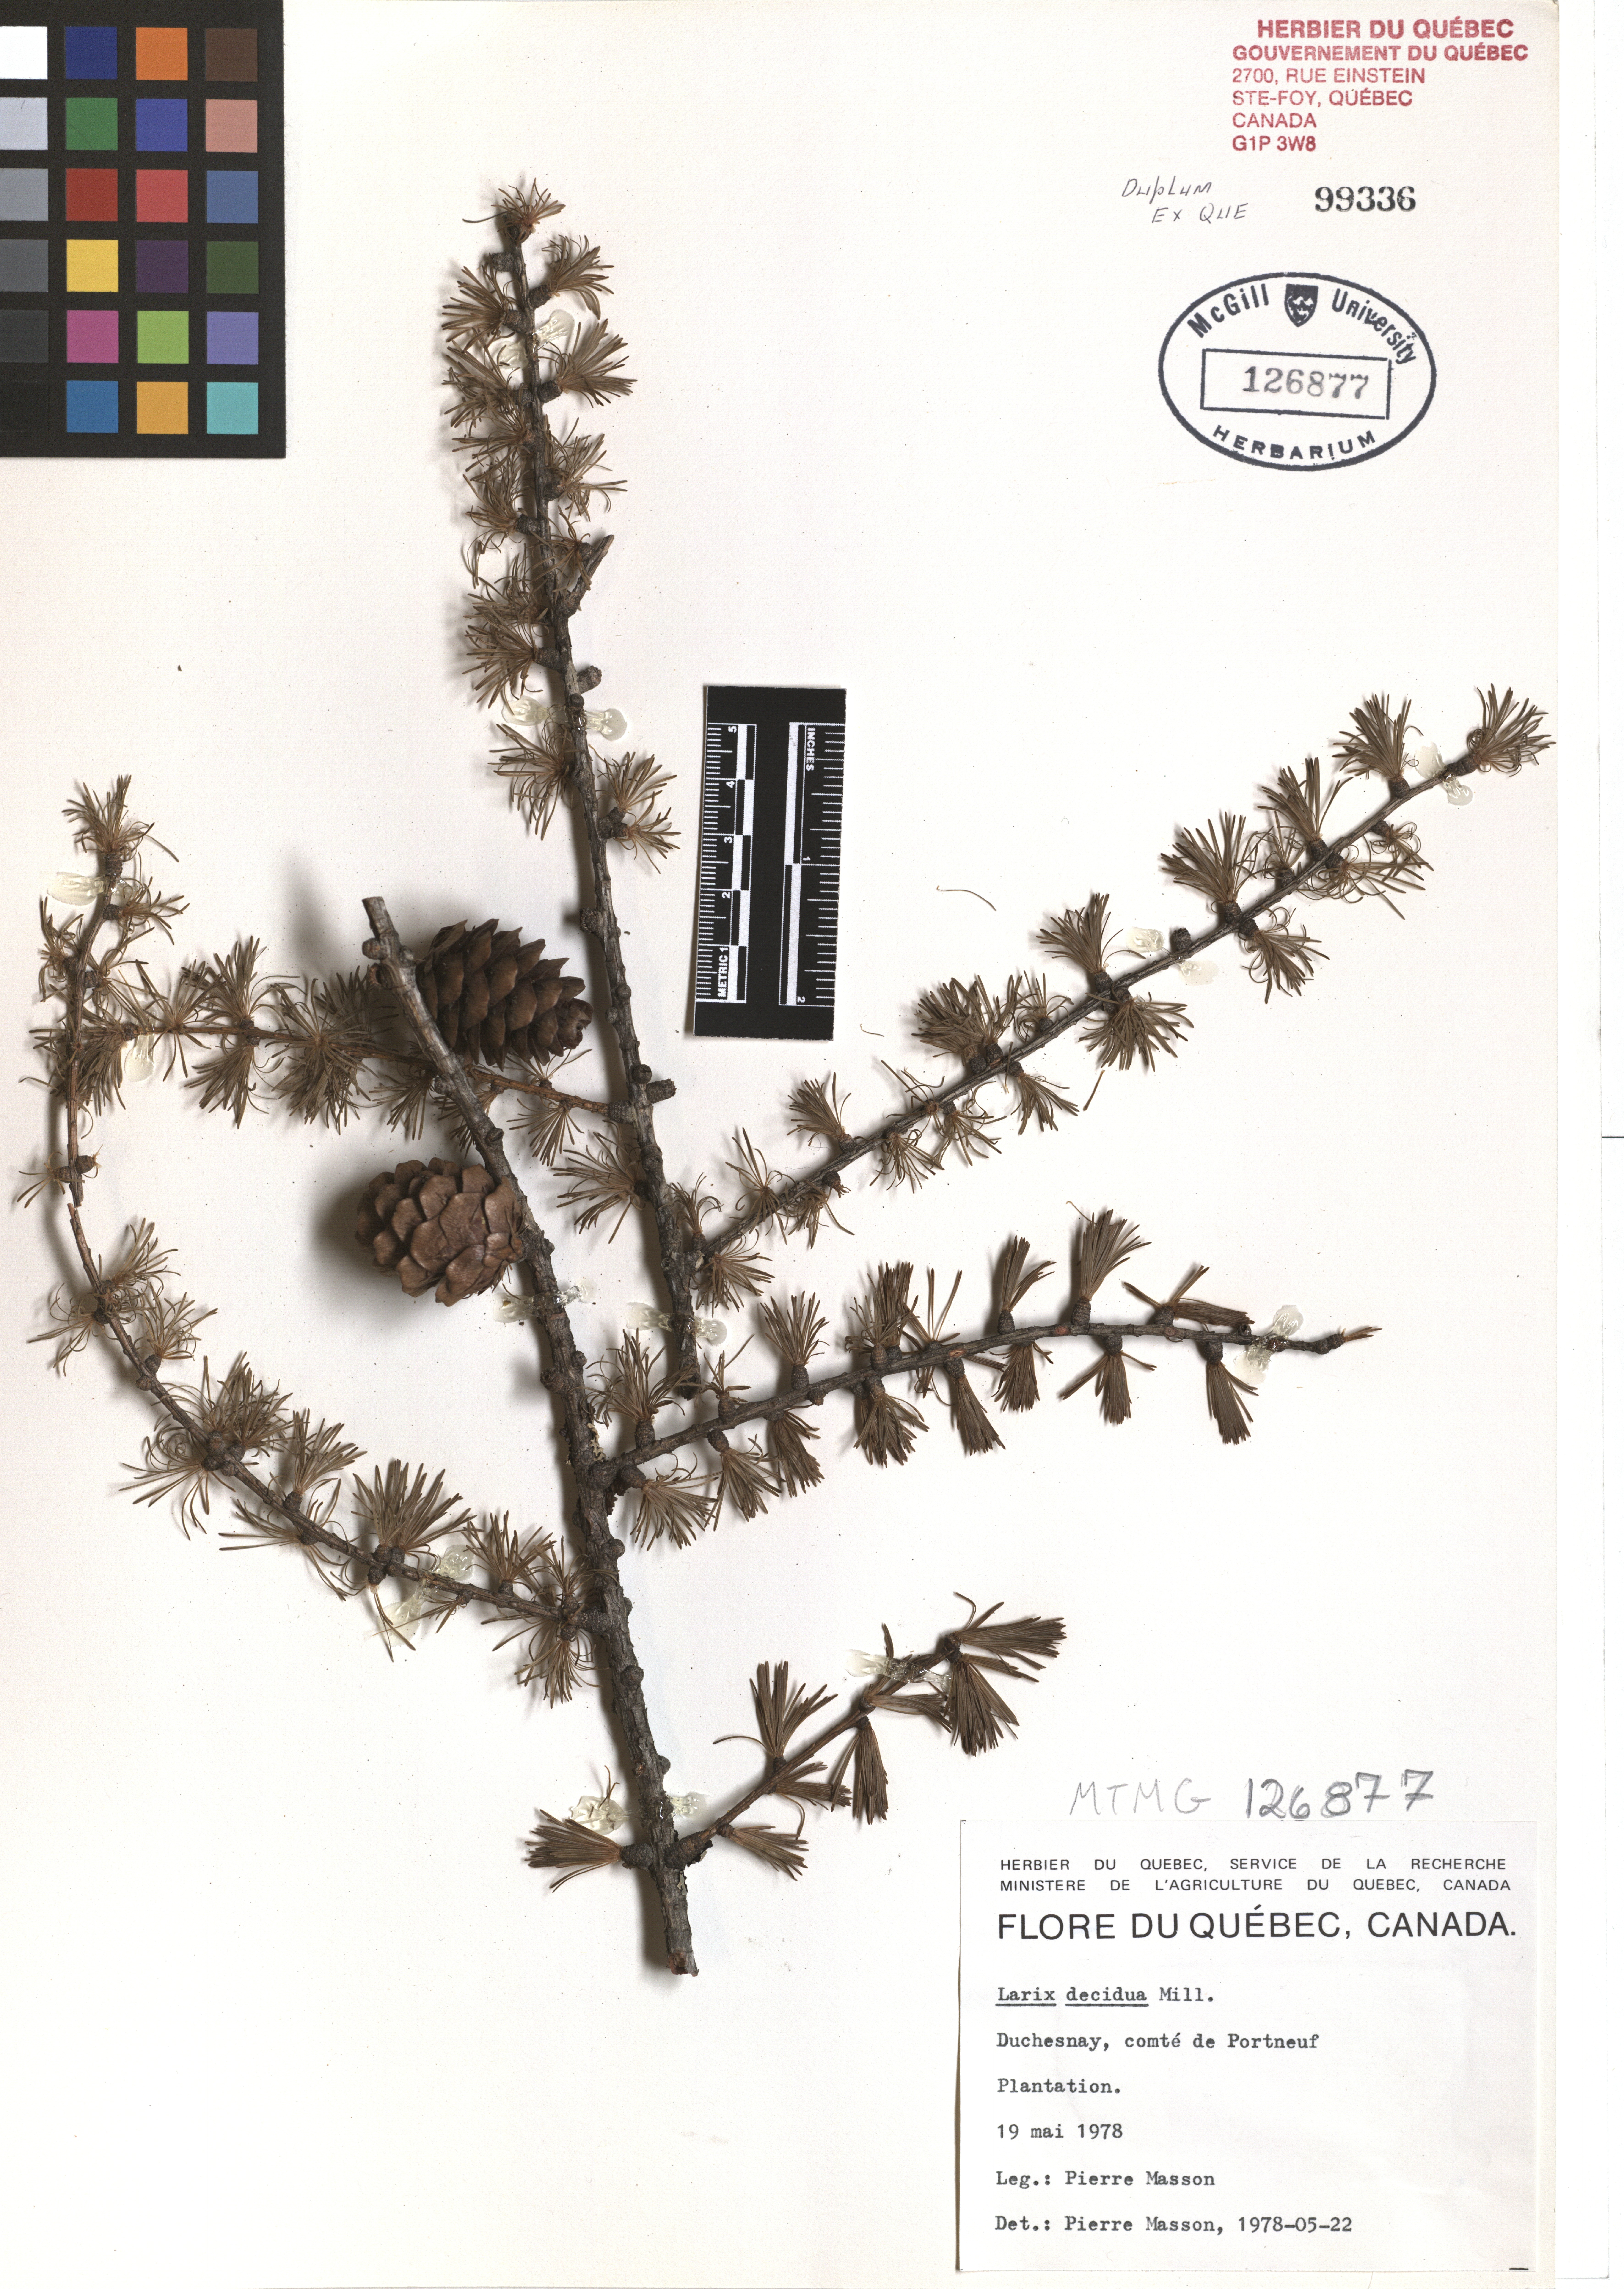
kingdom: Plantae
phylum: Tracheophyta
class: Pinopsida
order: Pinales
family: Pinaceae
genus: Larix
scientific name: Larix decidua
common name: European larch
